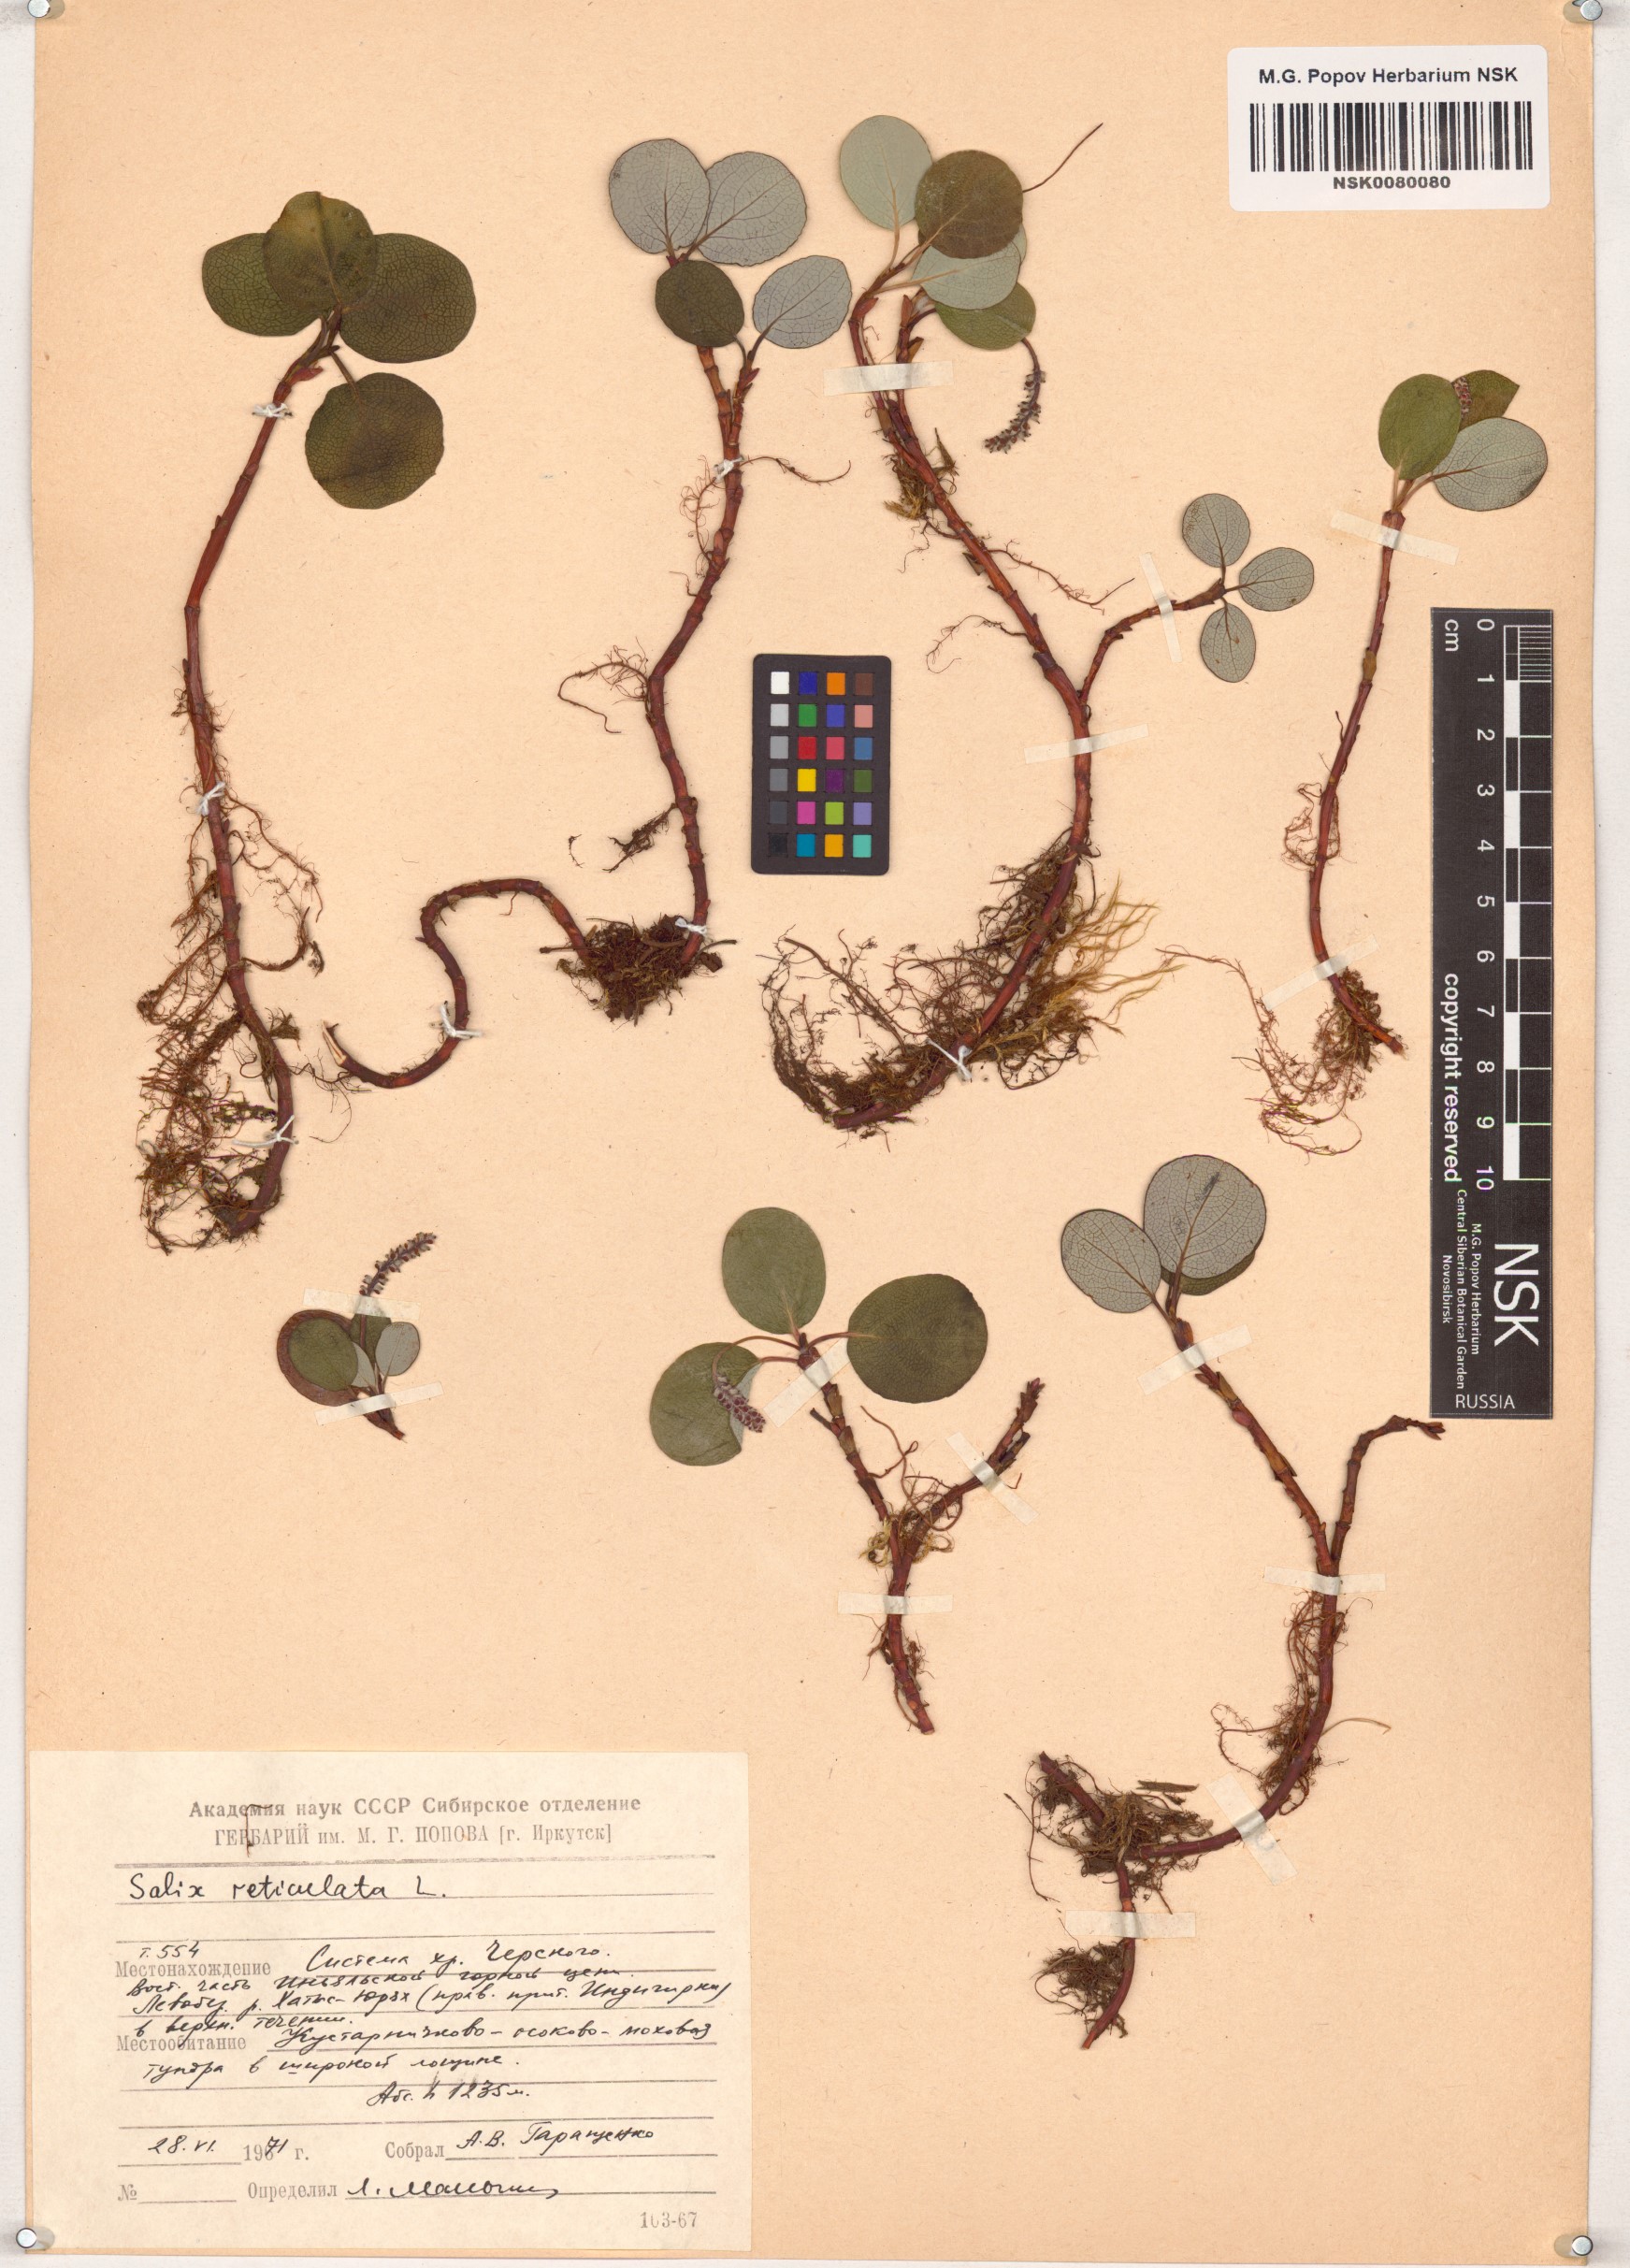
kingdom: Plantae
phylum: Tracheophyta
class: Magnoliopsida
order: Malpighiales
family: Salicaceae
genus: Salix
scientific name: Salix reticulata
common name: Net-leaved willow
